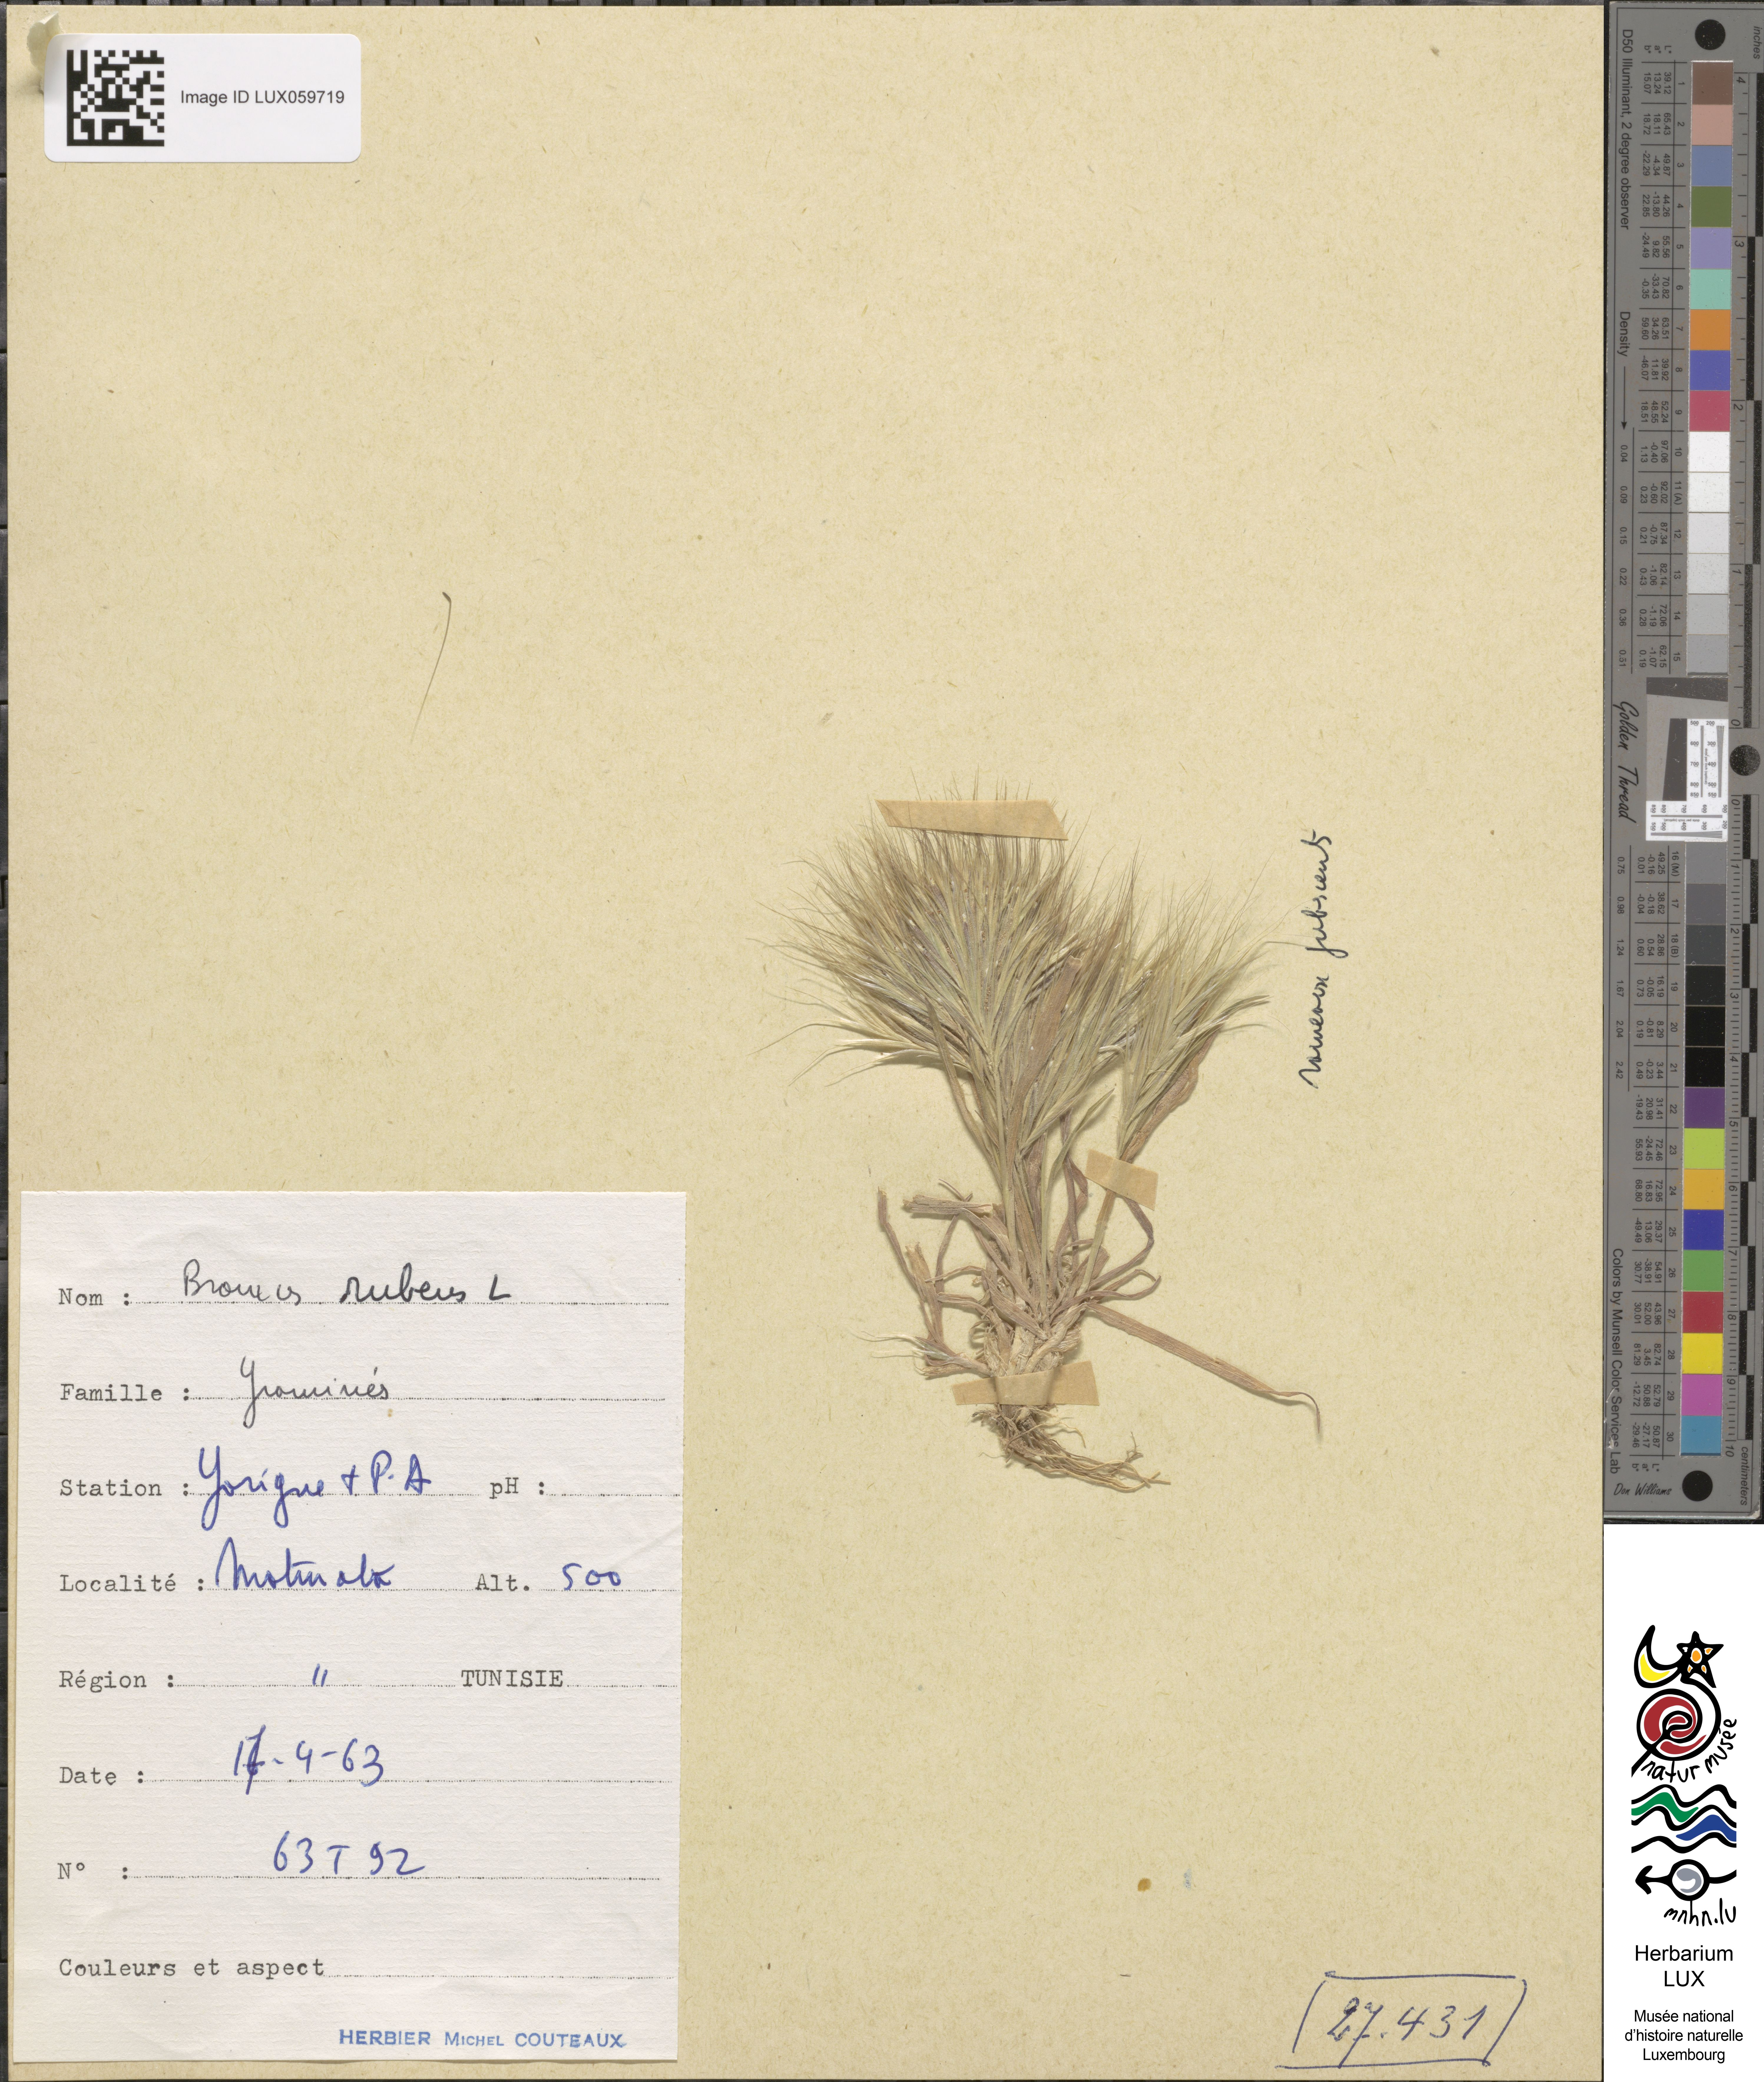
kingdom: Plantae
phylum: Tracheophyta
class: Liliopsida
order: Poales
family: Poaceae
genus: Bromus
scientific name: Bromus rubens
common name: Red brome
